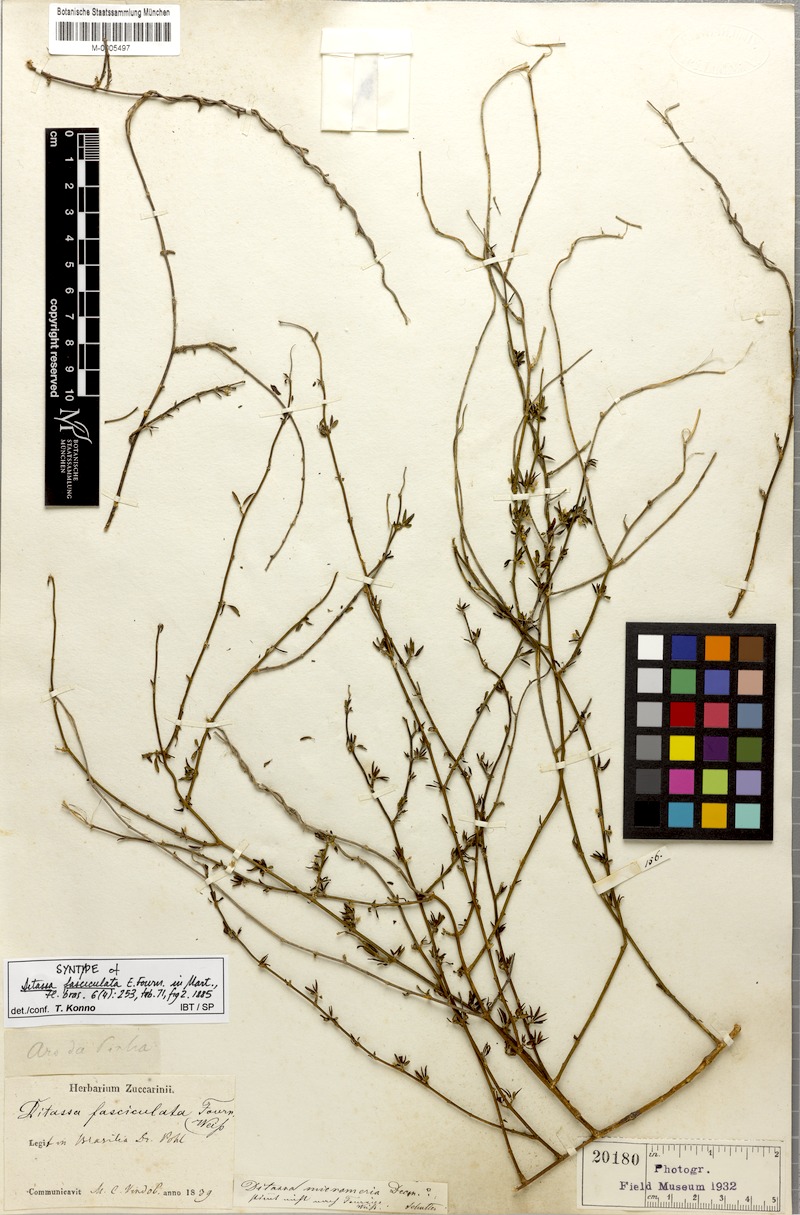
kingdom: Plantae
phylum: Tracheophyta
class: Magnoliopsida
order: Gentianales
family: Apocynaceae
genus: Ditassa
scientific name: Ditassa fasciculata
